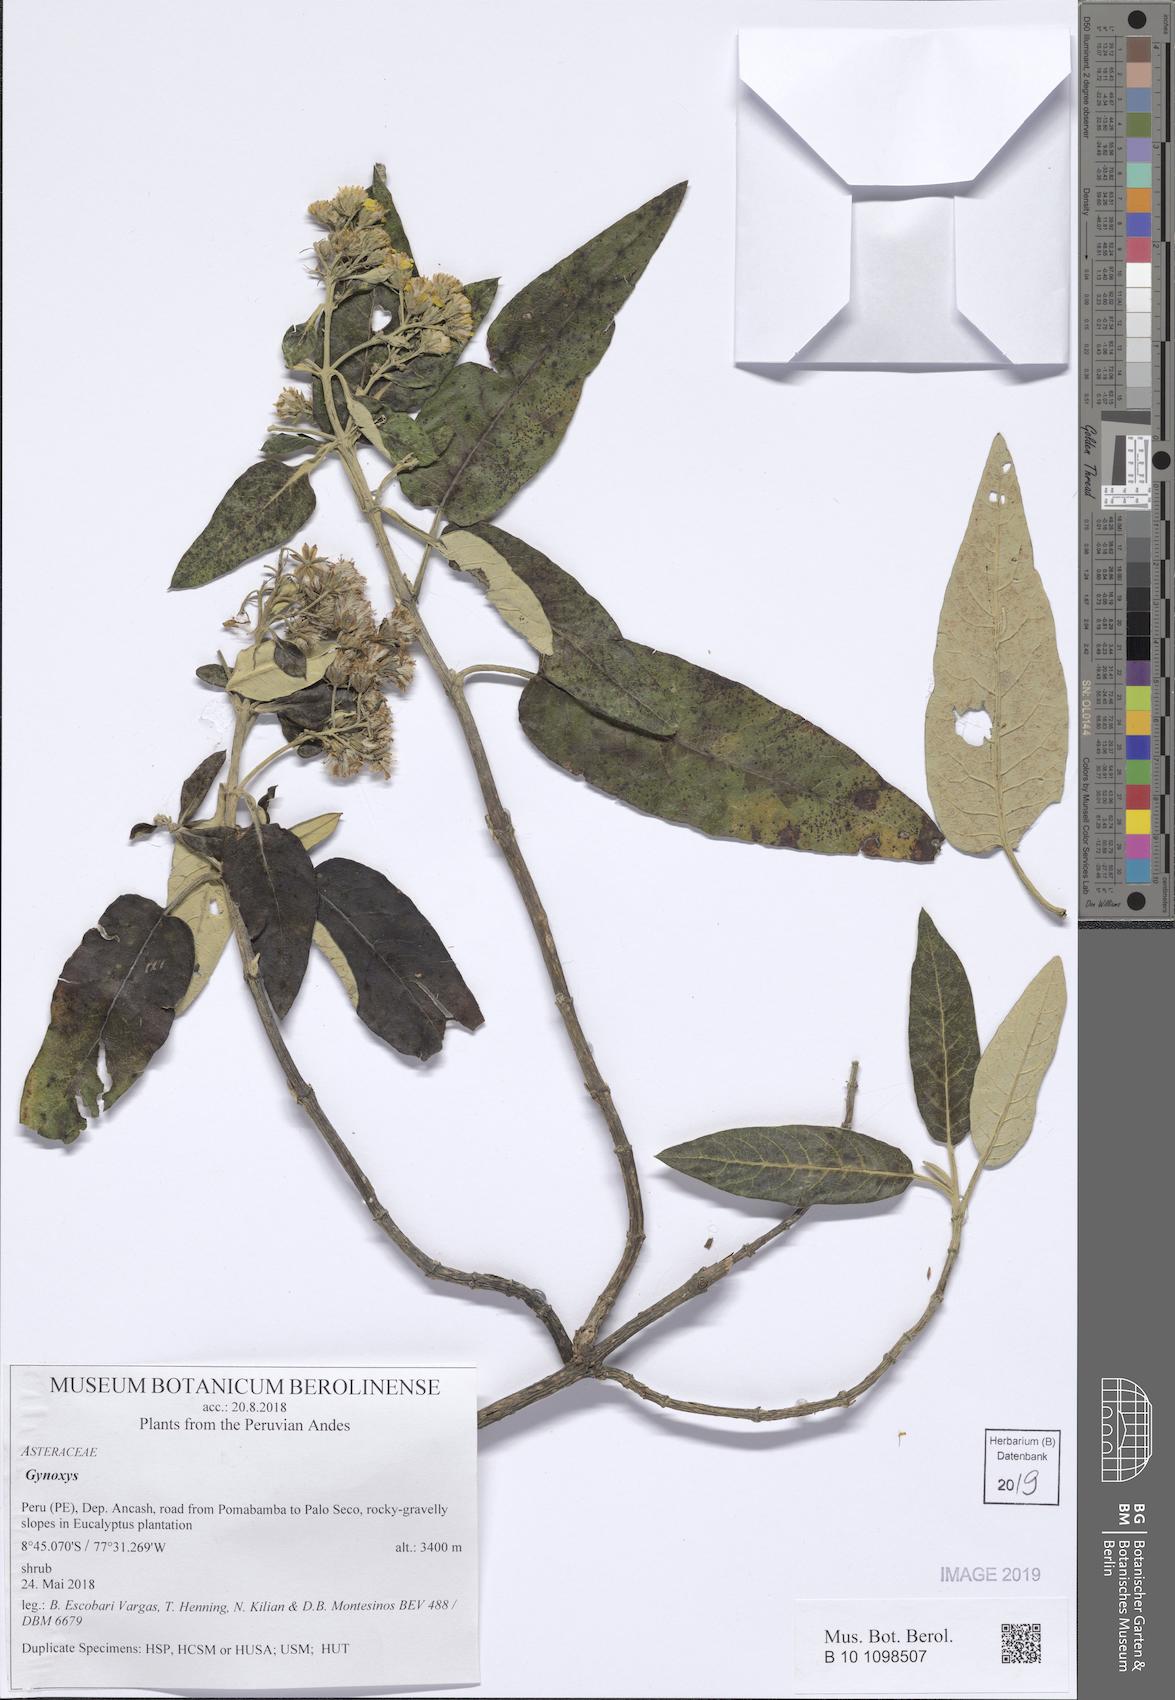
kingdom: Plantae
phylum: Tracheophyta
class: Magnoliopsida
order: Asterales
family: Asteraceae
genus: Gynoxys
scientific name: Gynoxys
